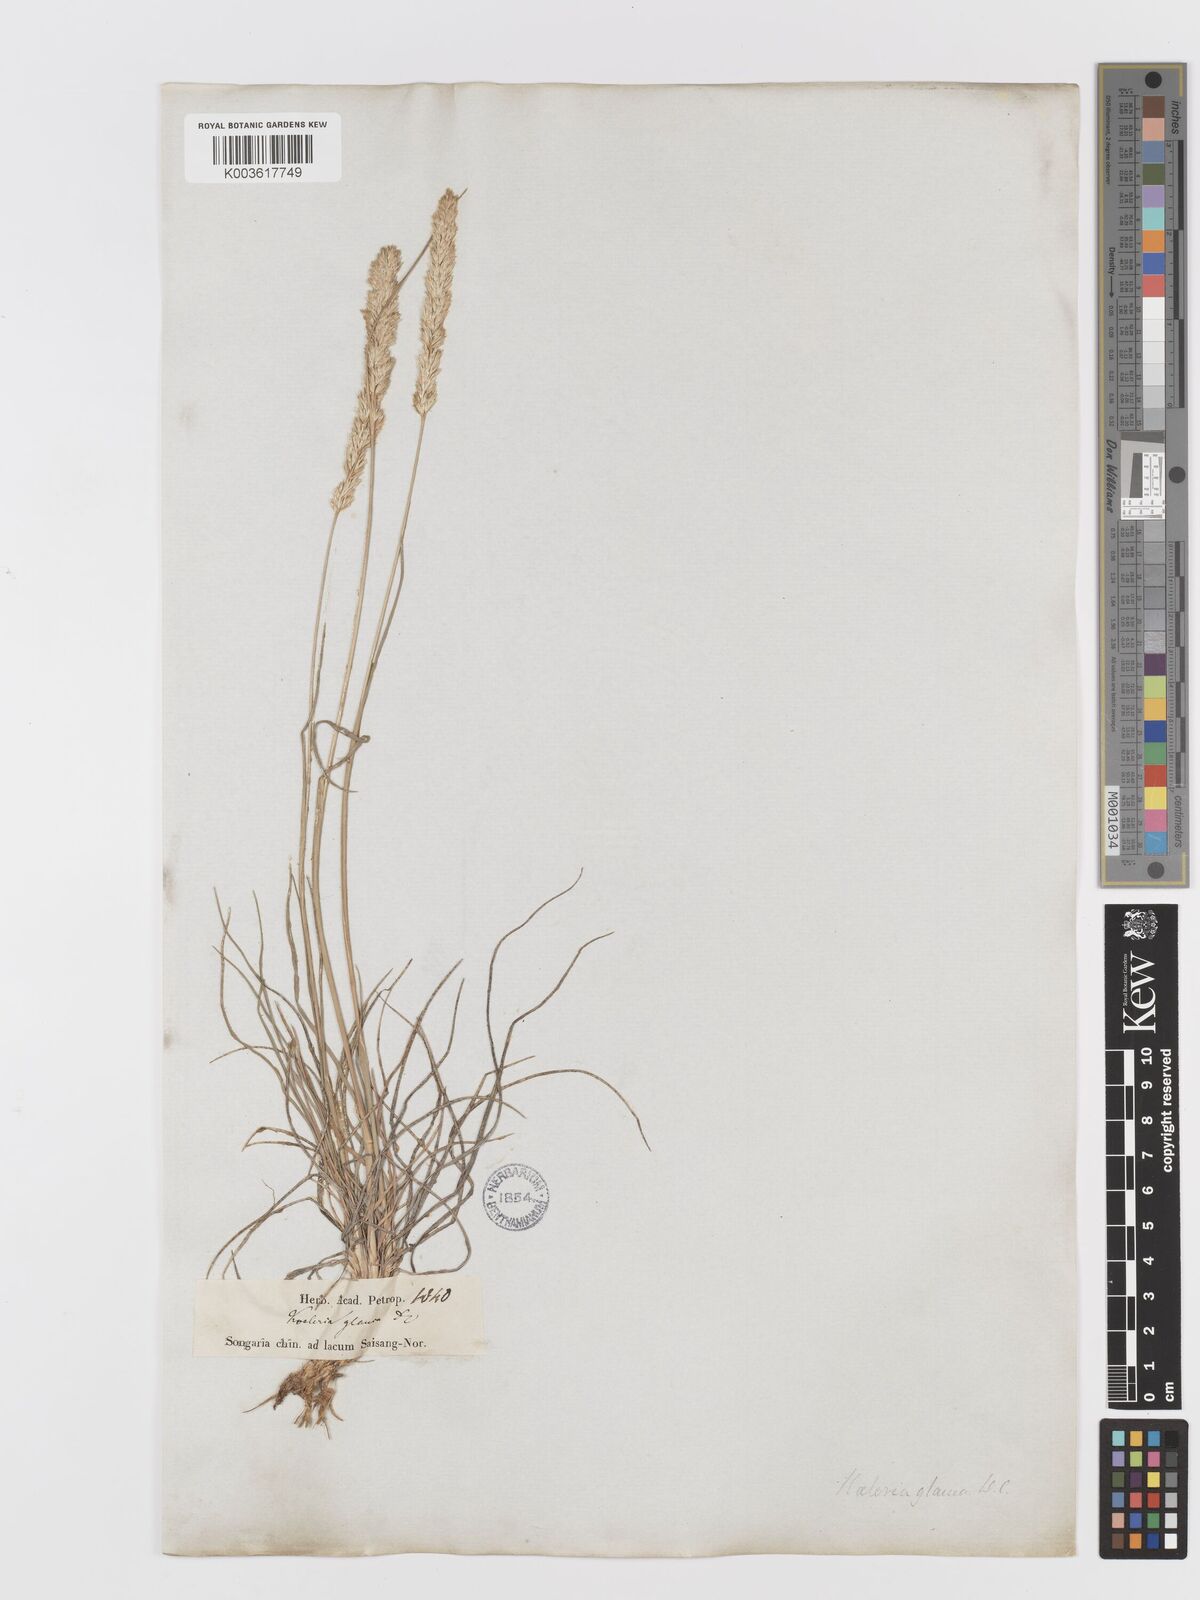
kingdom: Plantae
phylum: Tracheophyta
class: Liliopsida
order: Poales
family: Poaceae
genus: Koeleria
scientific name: Koeleria glauca
